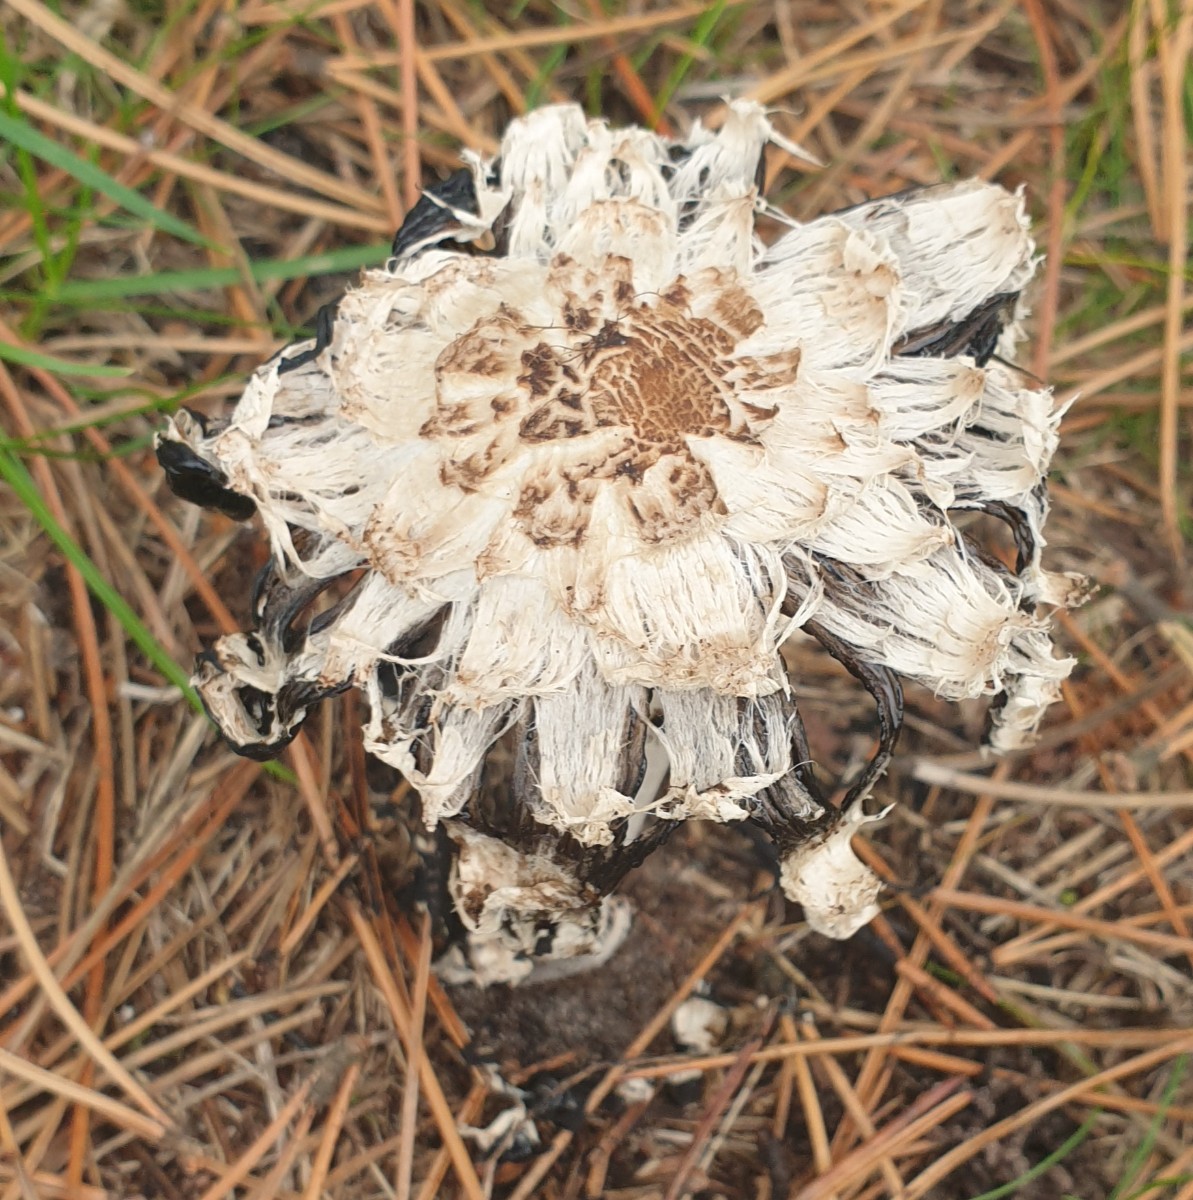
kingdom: Fungi
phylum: Basidiomycota
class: Agaricomycetes
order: Agaricales
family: Agaricaceae
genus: Coprinus
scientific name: Coprinus comatus
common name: stor parykhat
